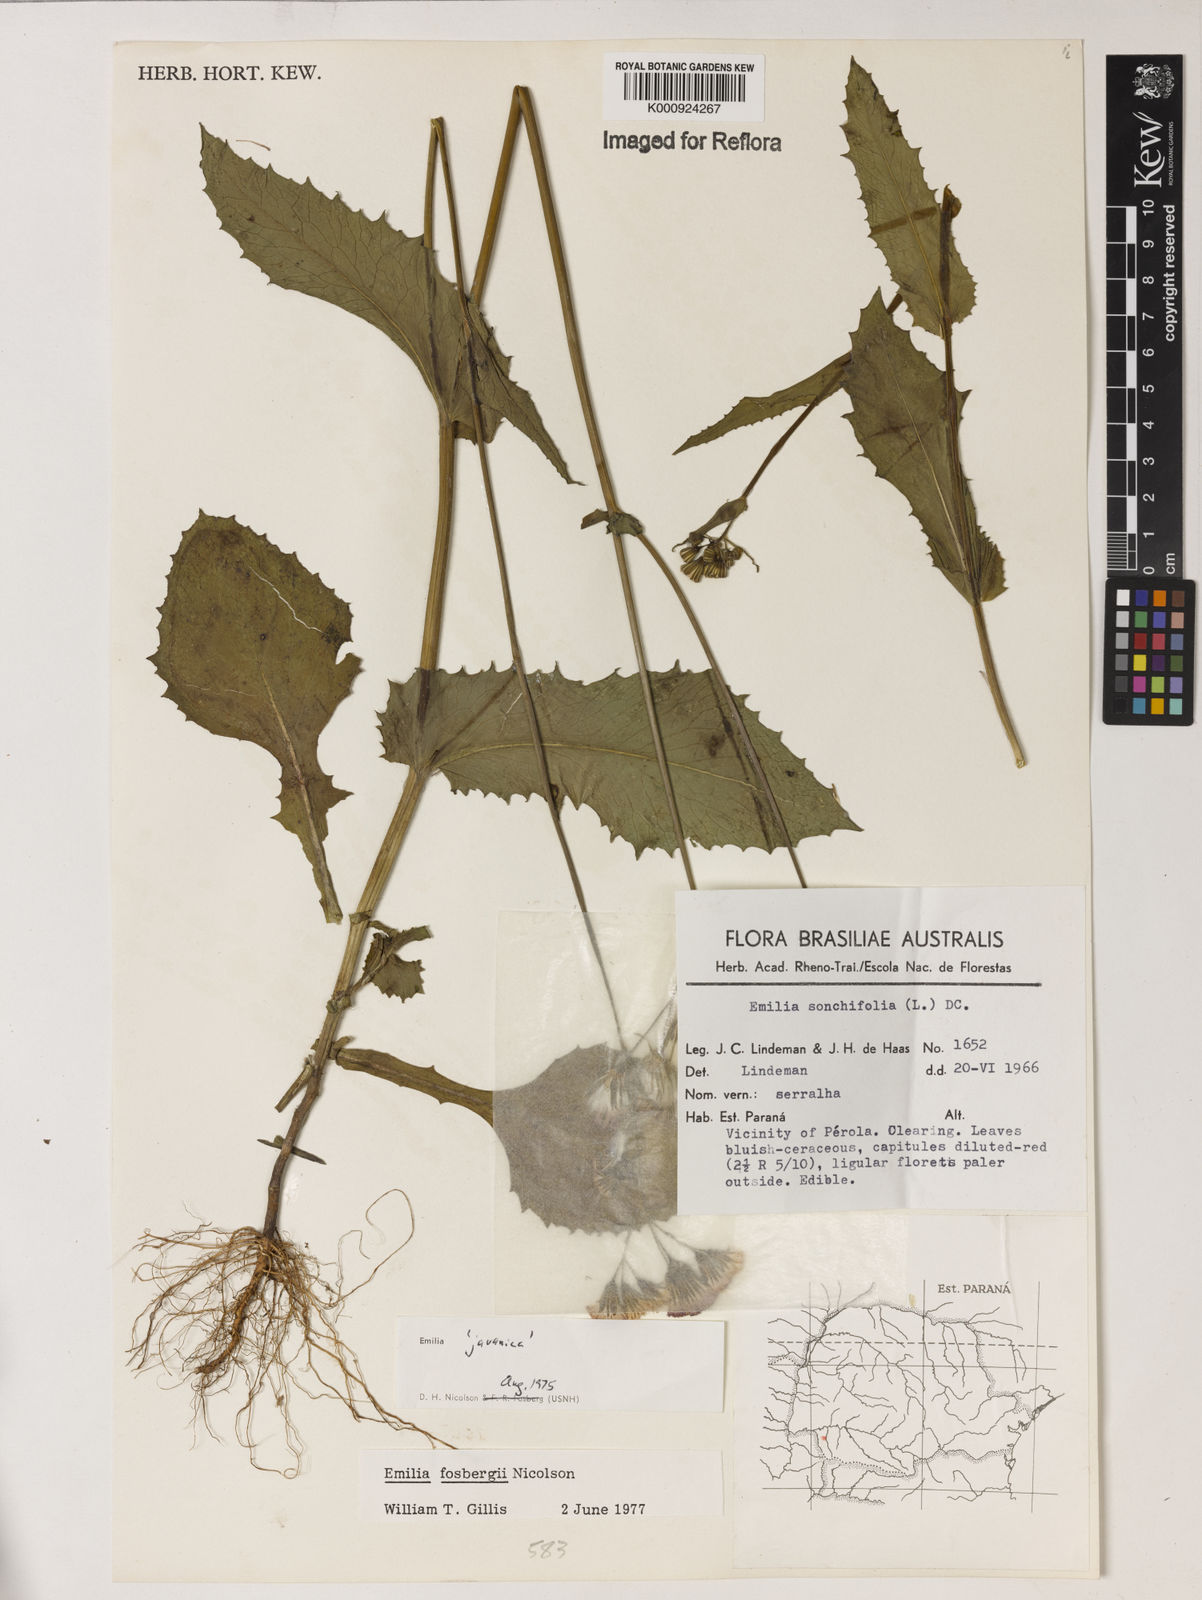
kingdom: Plantae
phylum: Tracheophyta
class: Magnoliopsida
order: Asterales
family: Asteraceae
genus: Emilia
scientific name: Emilia fosbergii
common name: Florida tasselflower
